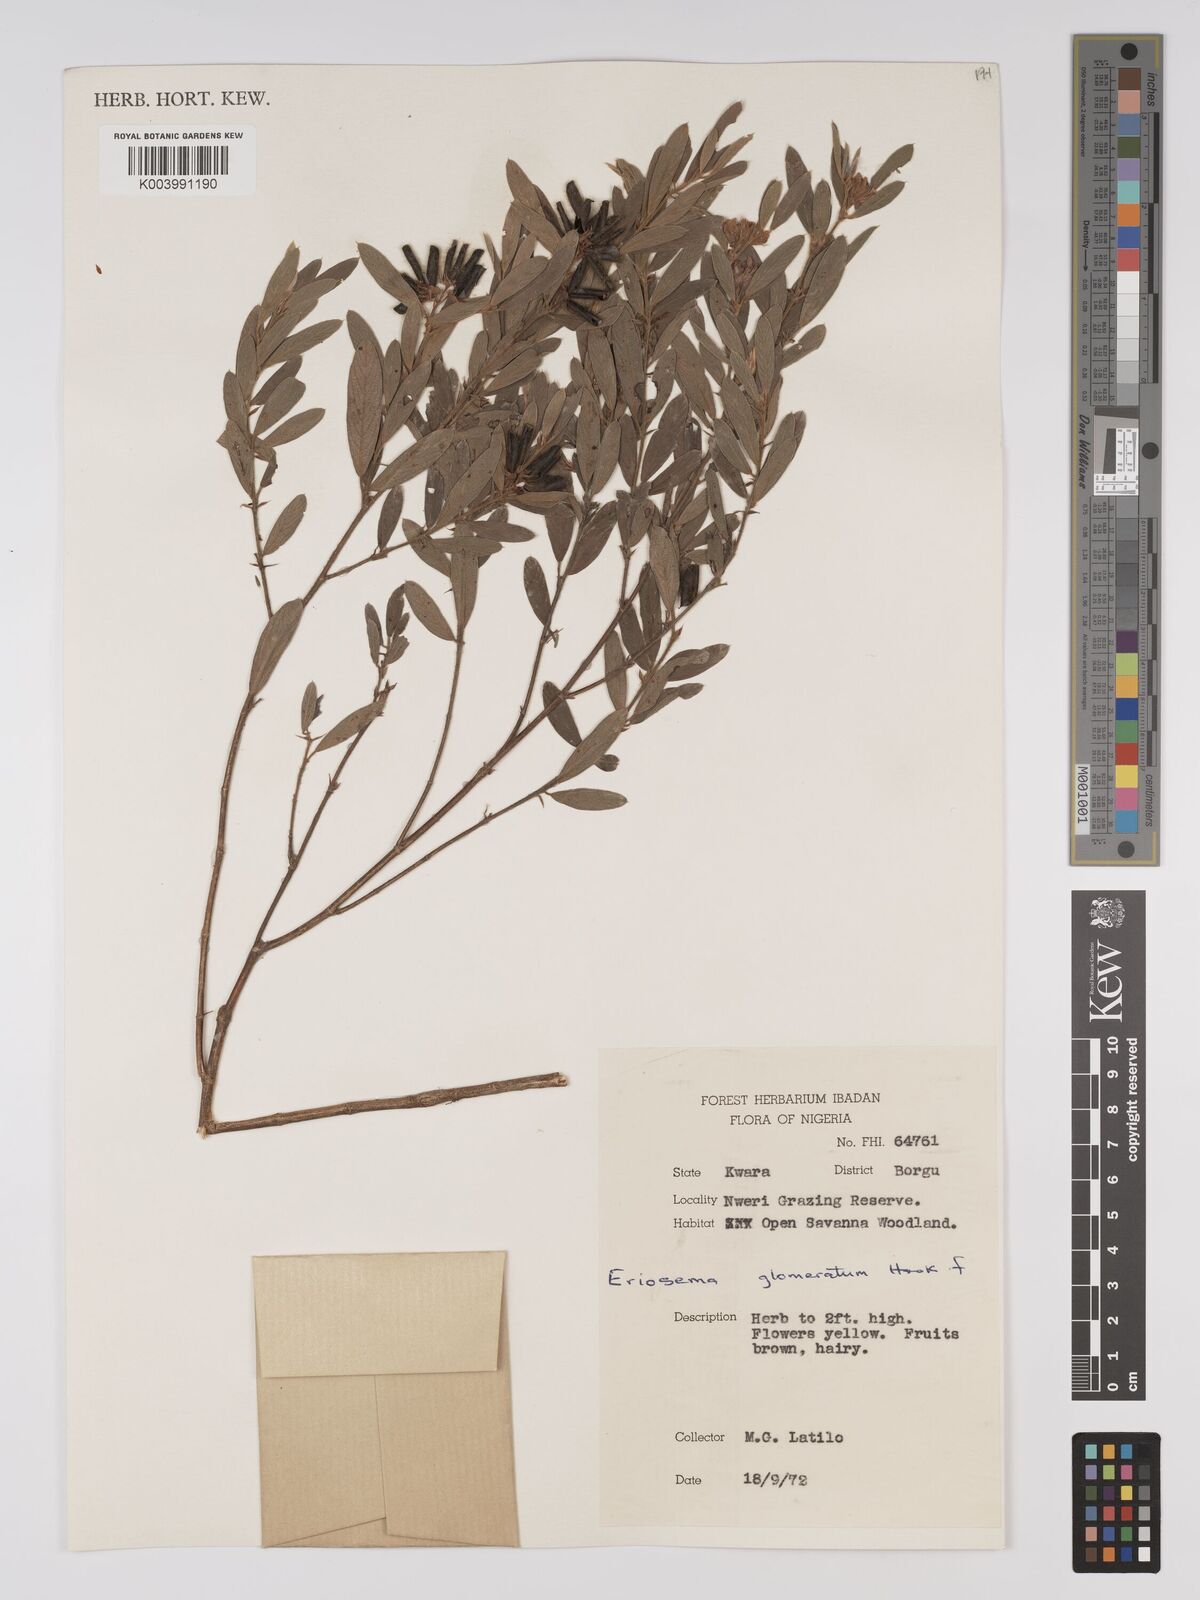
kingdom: Plantae
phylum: Tracheophyta
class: Magnoliopsida
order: Fabales
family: Fabaceae
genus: Eriosema
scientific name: Eriosema glomeratum
